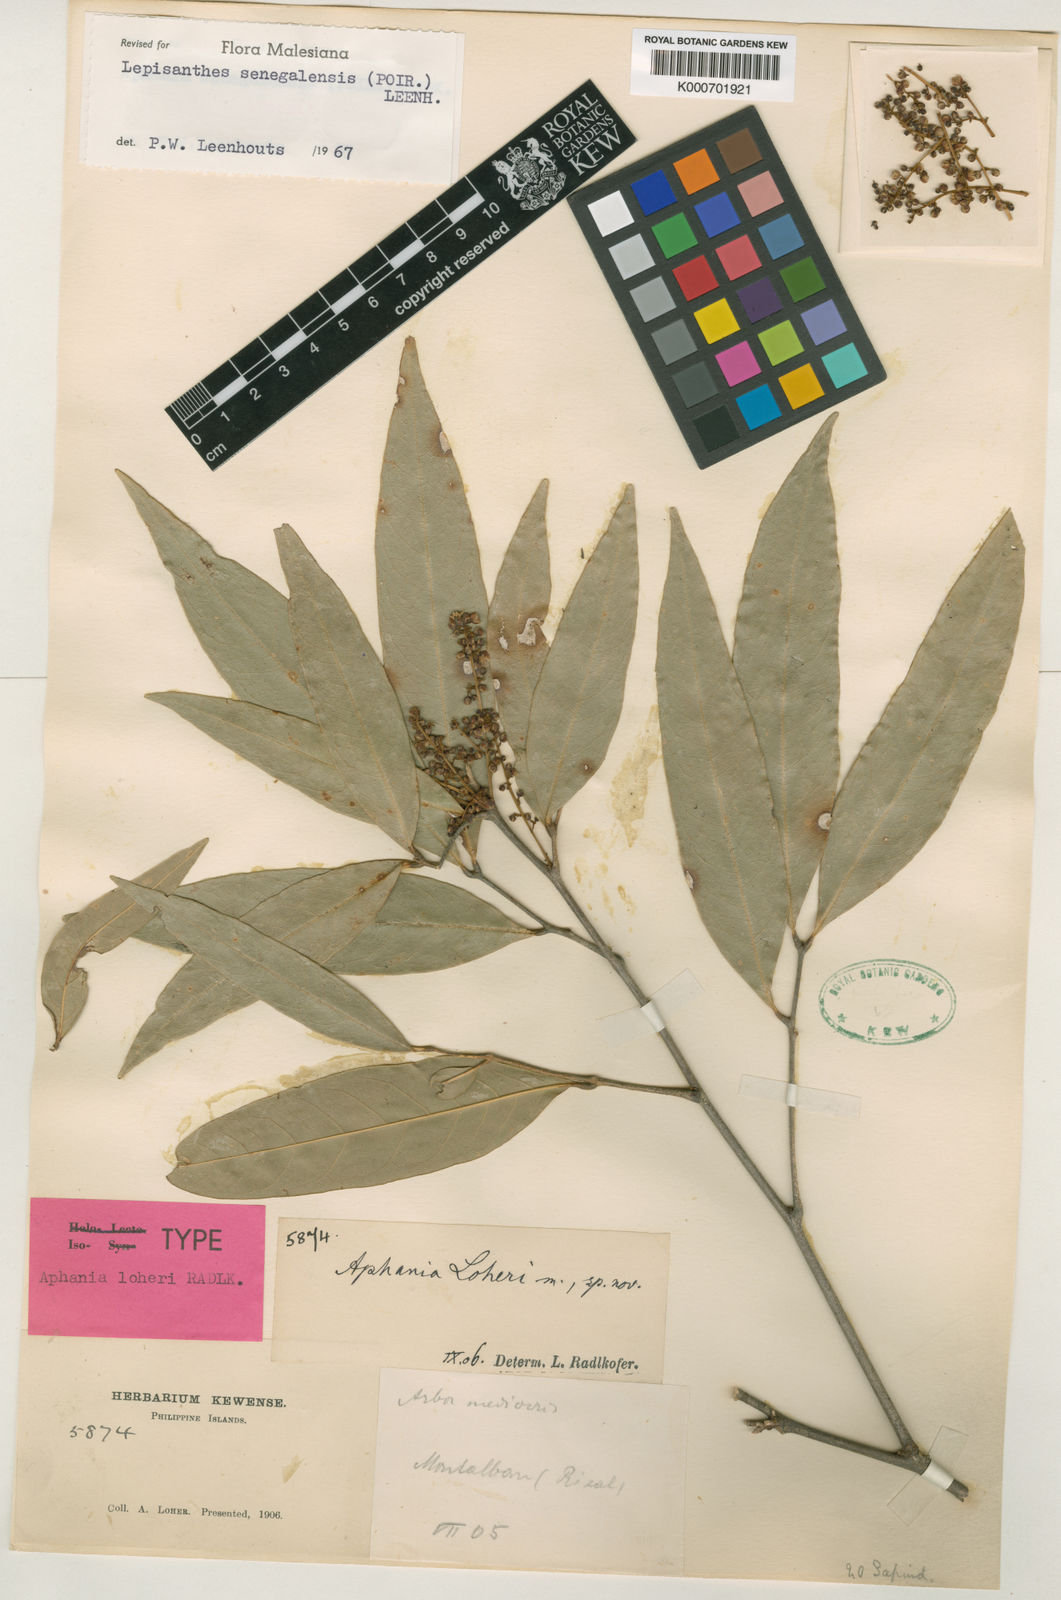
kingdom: Plantae
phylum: Tracheophyta
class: Magnoliopsida
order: Sapindales
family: Sapindaceae
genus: Lepisanthes
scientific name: Lepisanthes senegalensis
